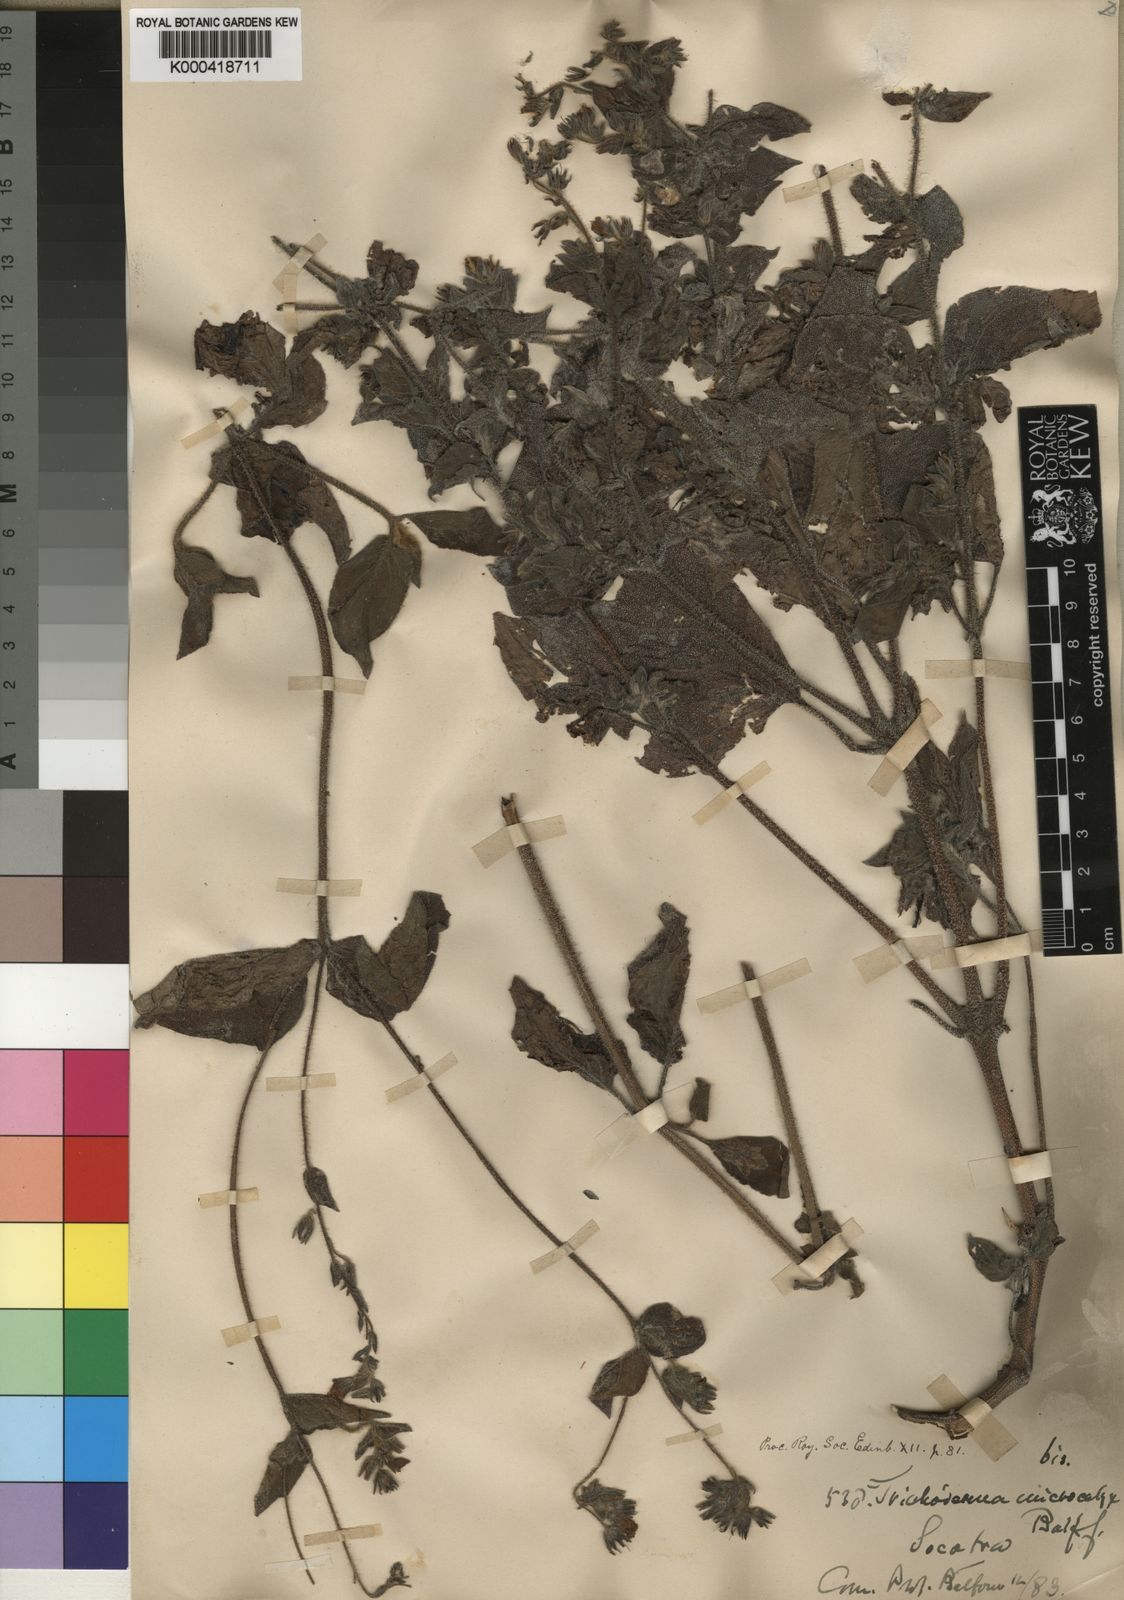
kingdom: Plantae
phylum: Tracheophyta
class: Magnoliopsida
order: Boraginales
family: Boraginaceae
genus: Trichodesma
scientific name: Trichodesma microcalyx
